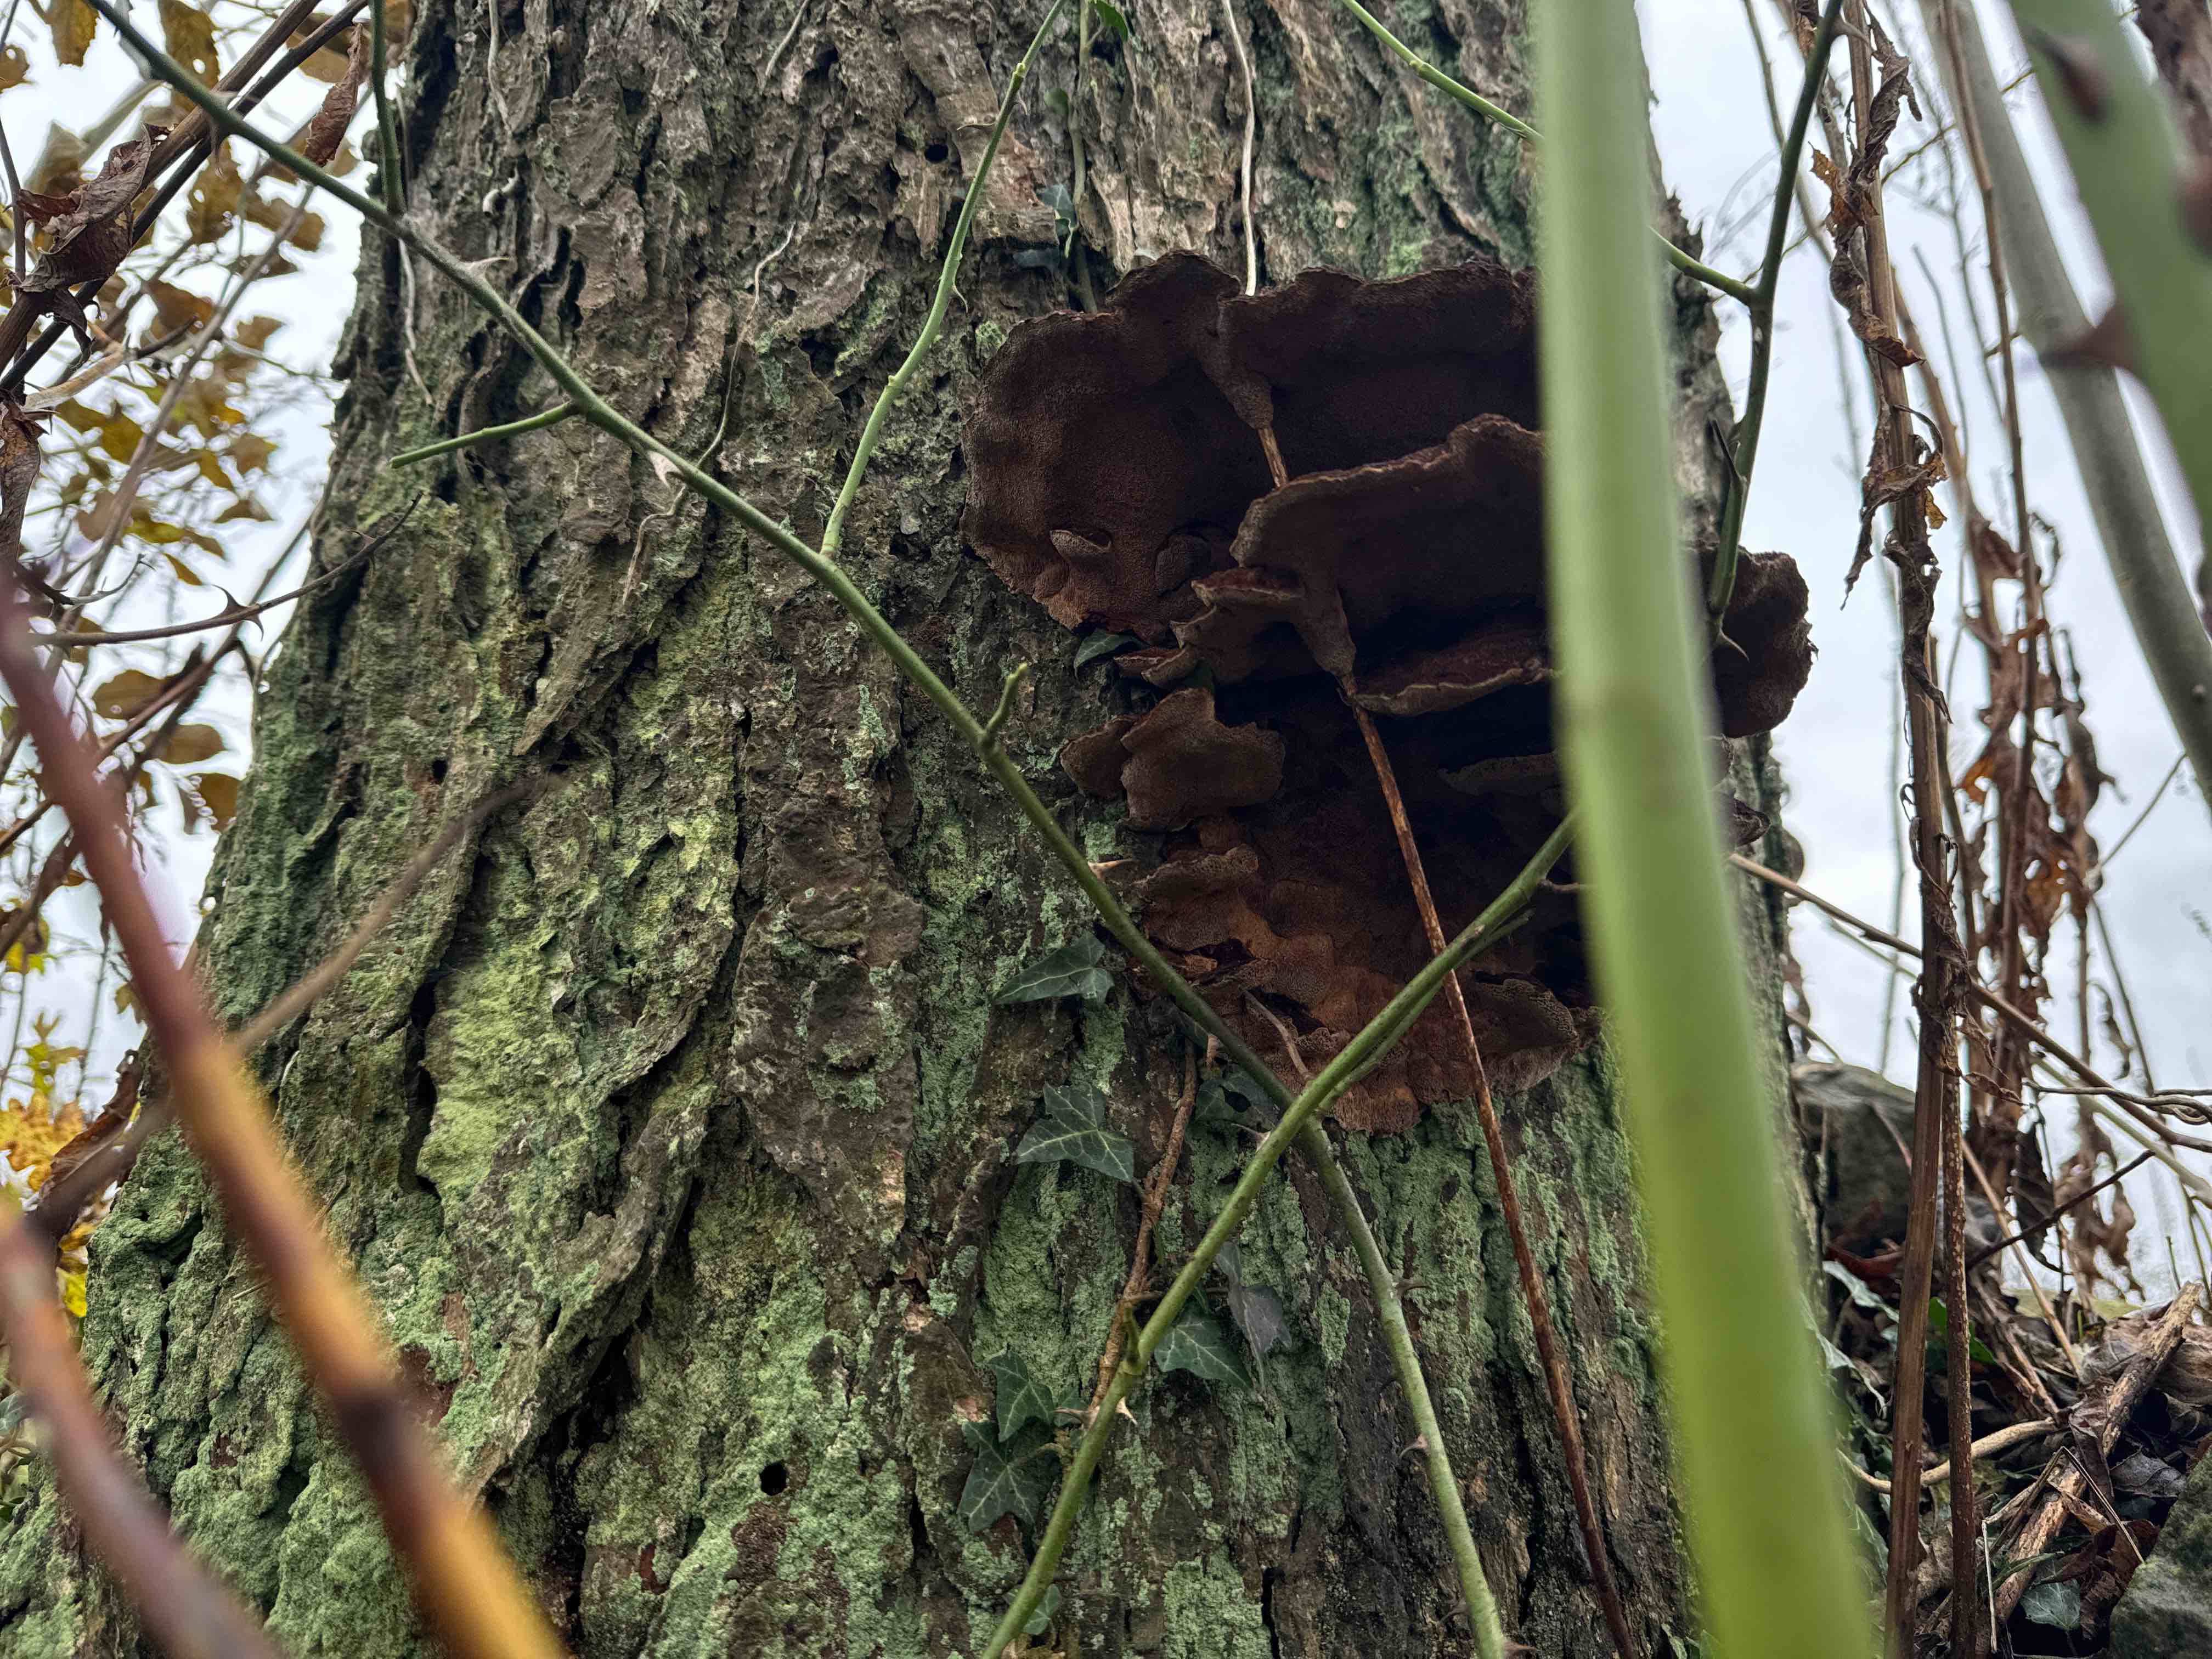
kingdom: Fungi
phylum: Basidiomycota
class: Agaricomycetes
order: Polyporales
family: Ischnodermataceae
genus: Ischnoderma
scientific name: Ischnoderma benzoinum
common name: gran-tjæreporesvamp
